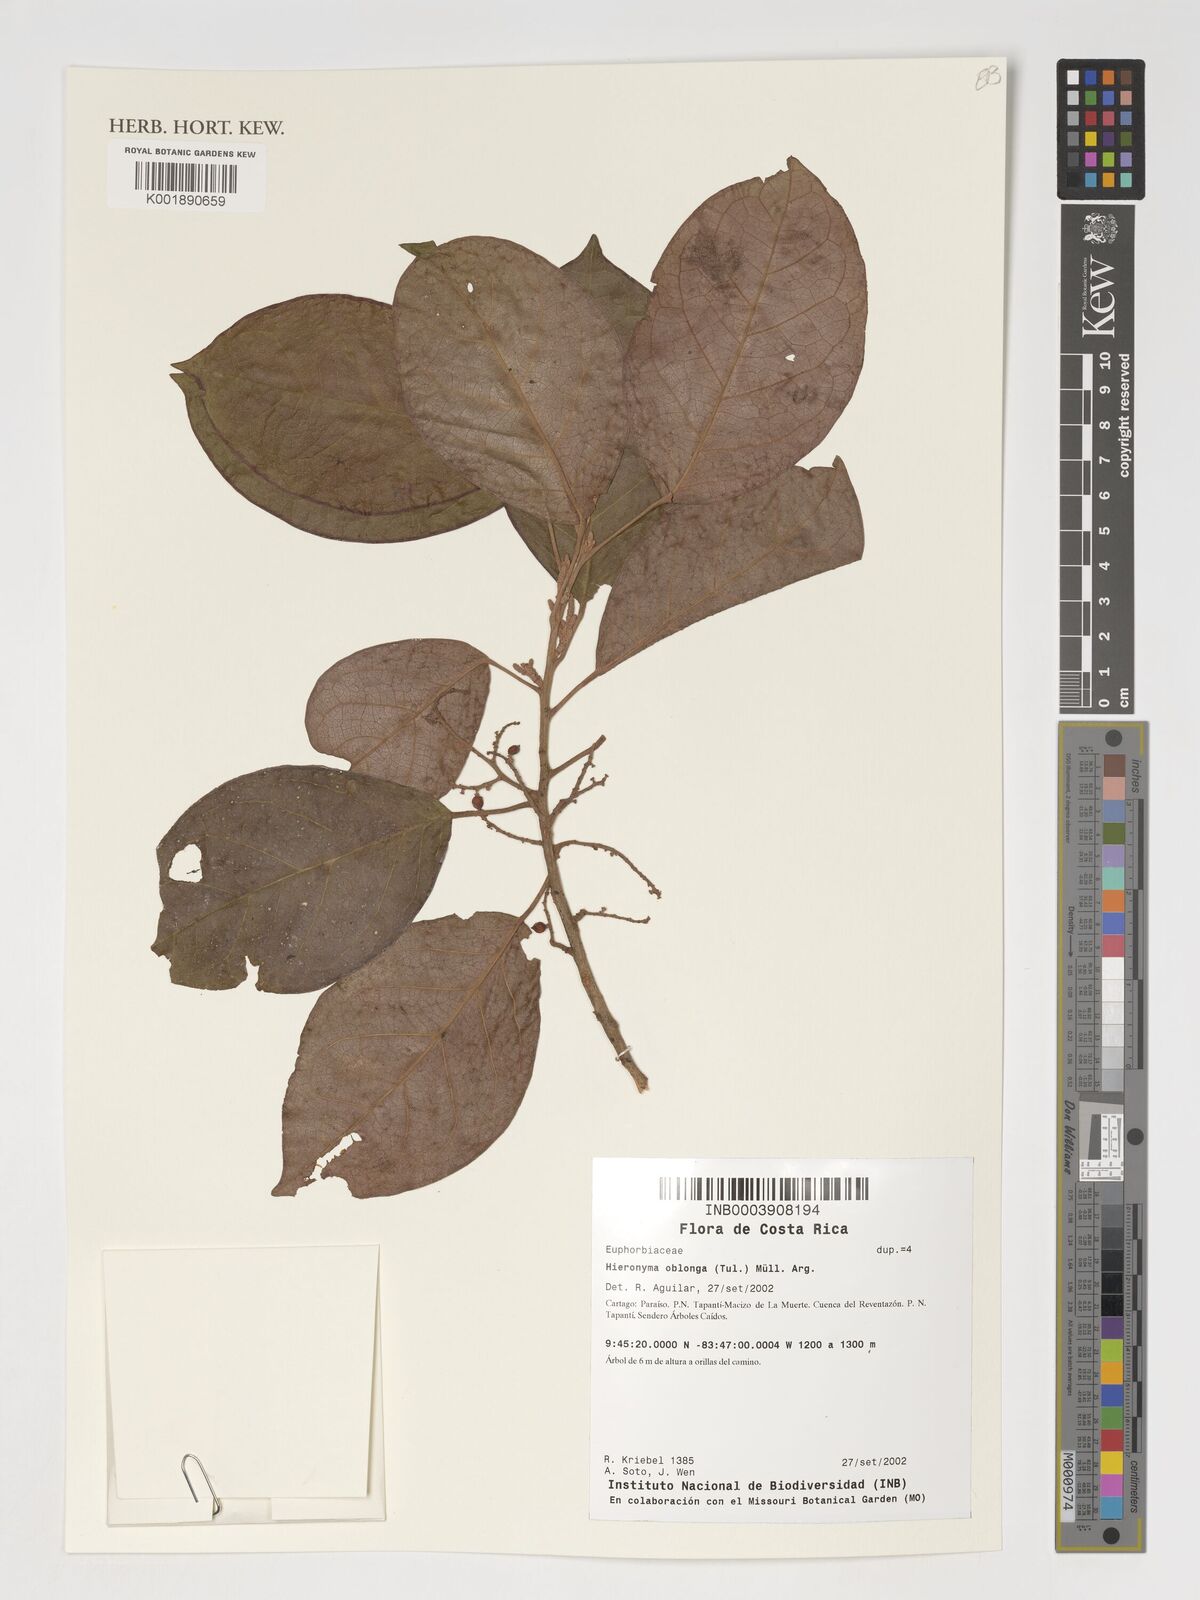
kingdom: Plantae
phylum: Tracheophyta
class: Magnoliopsida
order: Malpighiales
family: Phyllanthaceae
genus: Hieronyma
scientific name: Hieronyma oblonga
